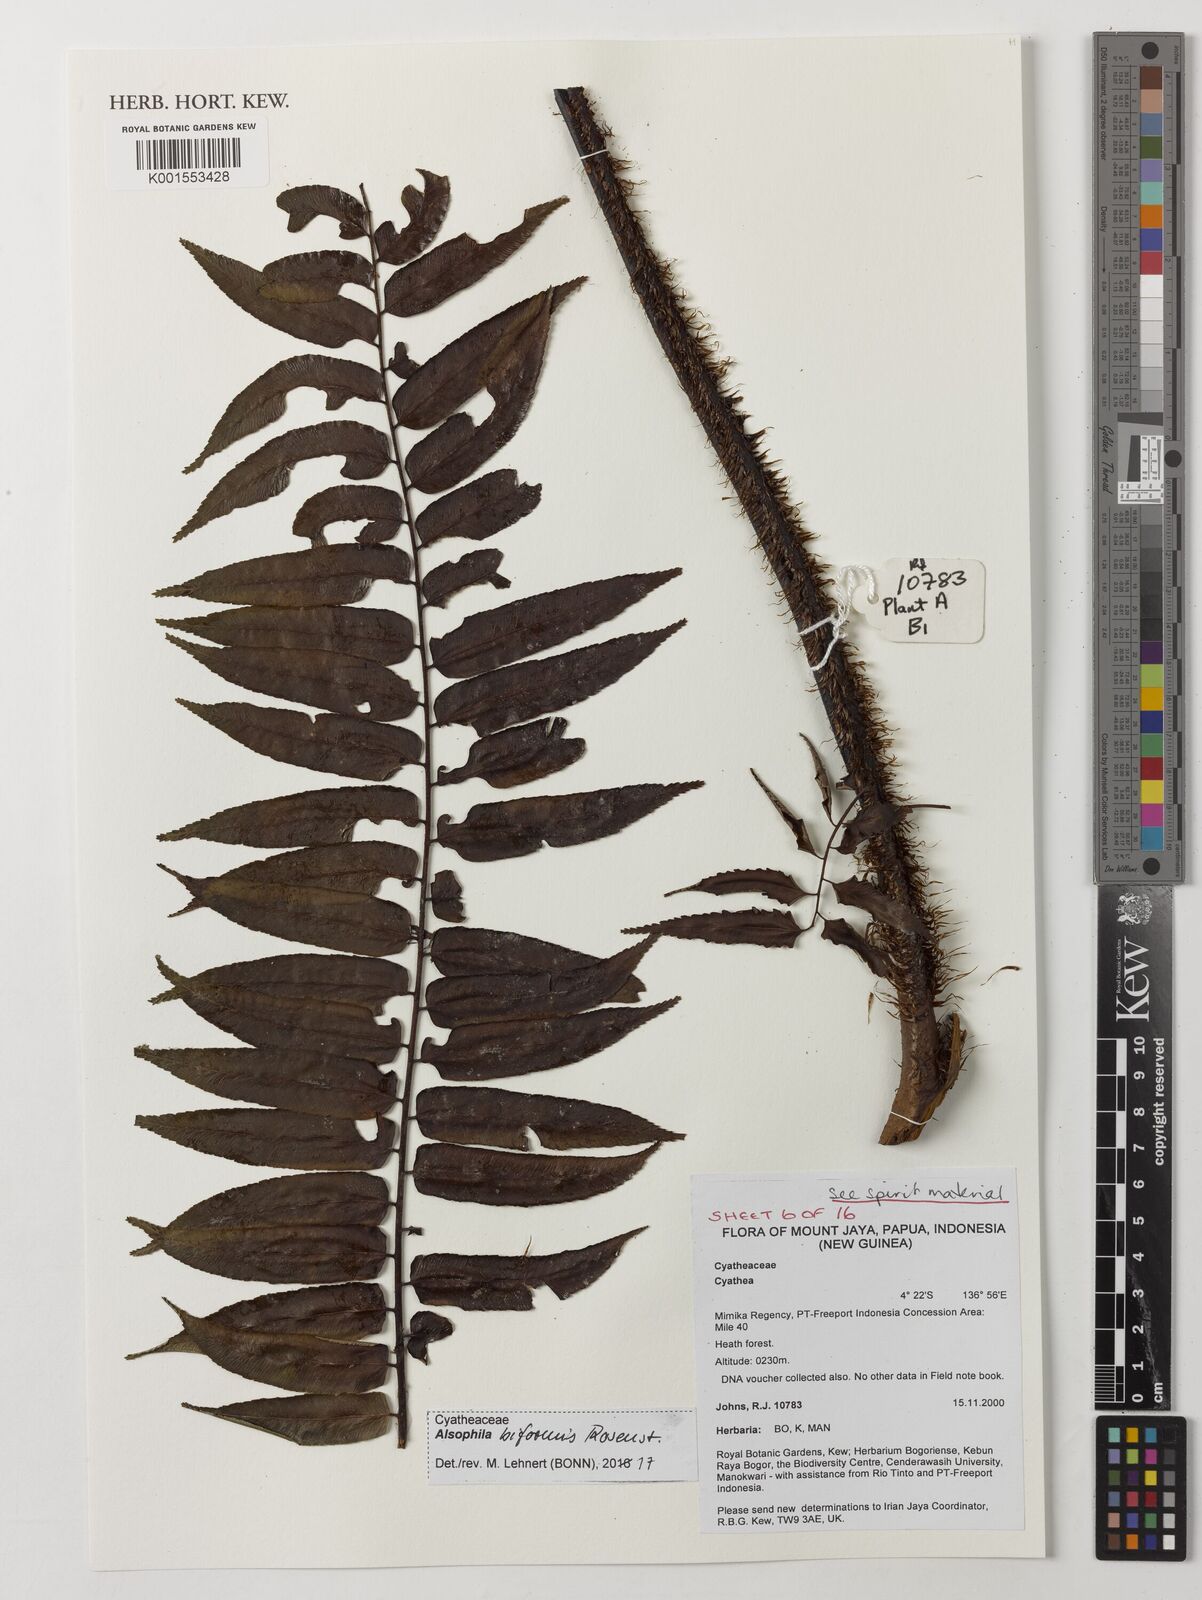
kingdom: Plantae
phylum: Tracheophyta
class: Polypodiopsida
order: Cyatheales
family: Cyatheaceae
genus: Gymnosphaera
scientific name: Gymnosphaera biformis
